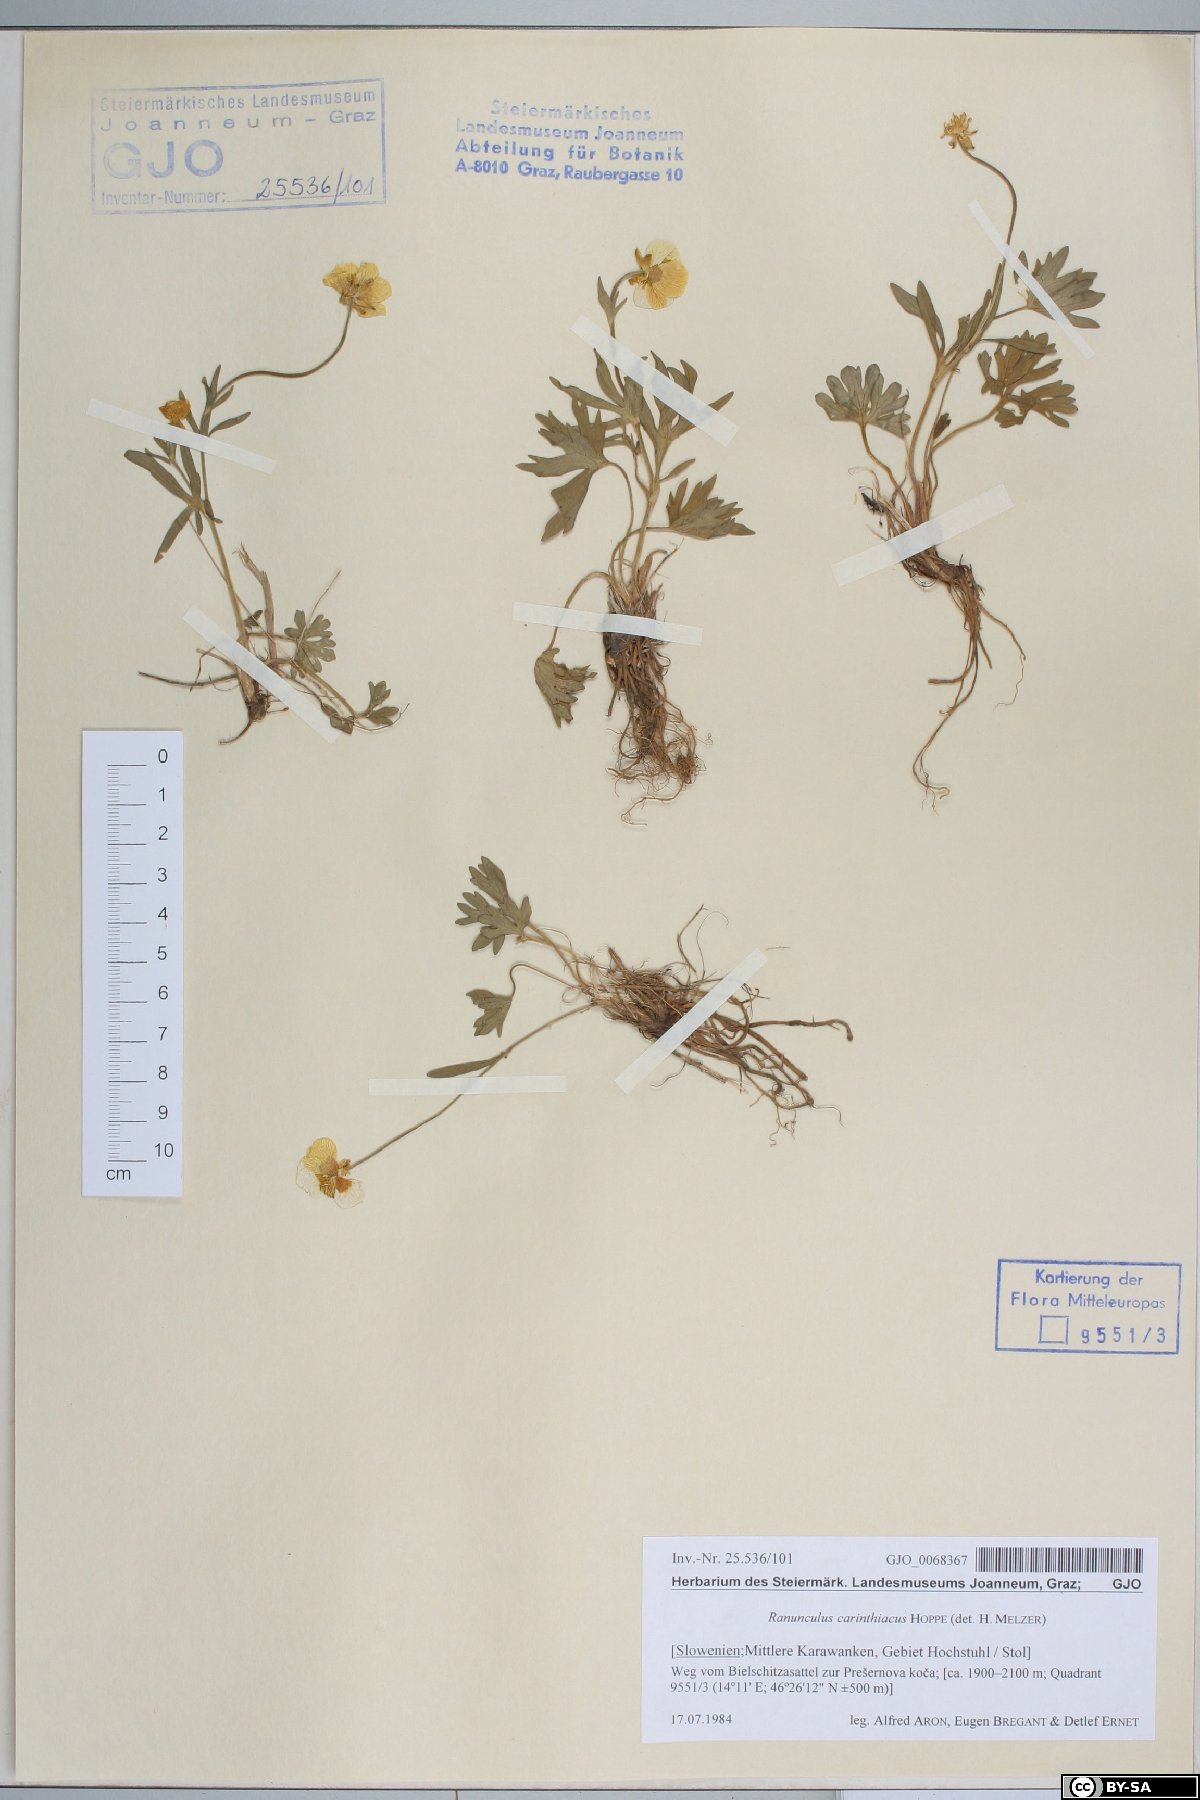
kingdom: Plantae
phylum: Tracheophyta
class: Magnoliopsida
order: Ranunculales
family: Ranunculaceae
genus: Ranunculus
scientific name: Ranunculus carinthiacus
